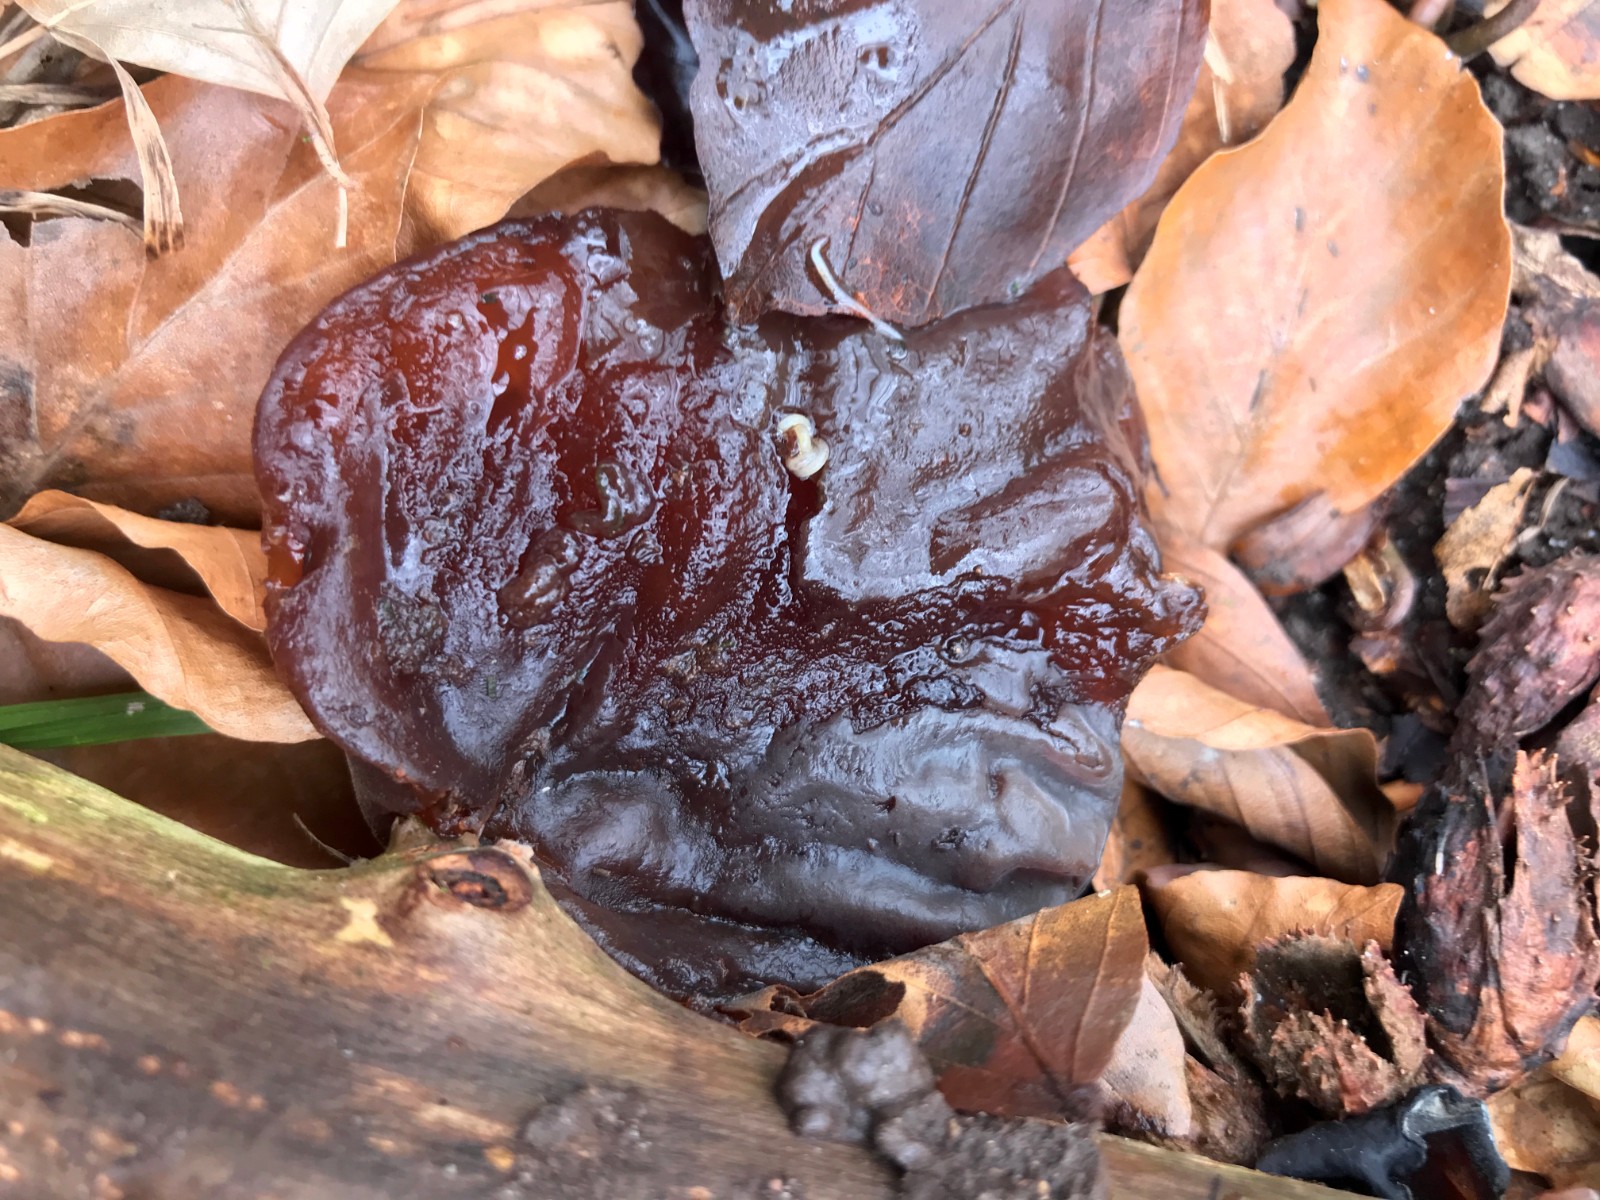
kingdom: Fungi
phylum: Basidiomycota
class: Agaricomycetes
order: Auriculariales
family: Auriculariaceae
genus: Auricularia
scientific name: Auricularia auricula-judae
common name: almindelig judasøre
